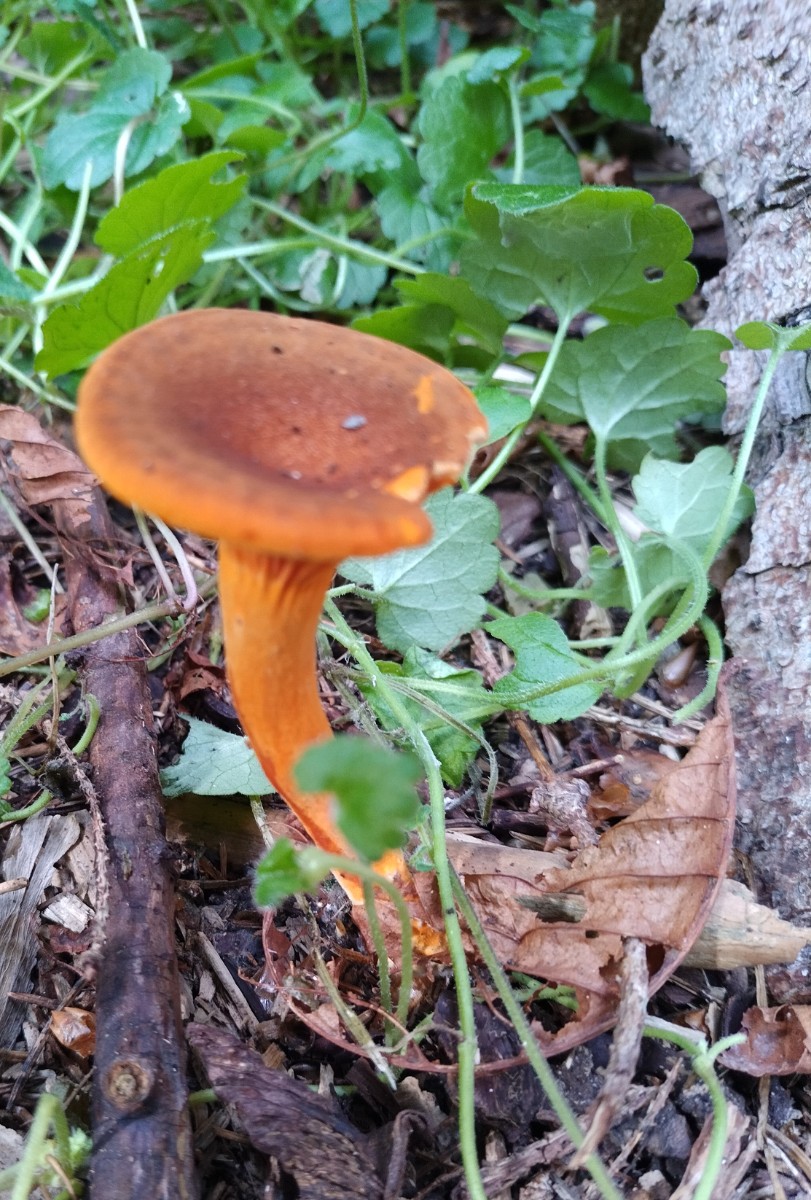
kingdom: Fungi
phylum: Basidiomycota
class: Agaricomycetes
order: Boletales
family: Hygrophoropsidaceae
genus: Hygrophoropsis
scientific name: Hygrophoropsis rufa
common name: brunfiltet orangekantarel
